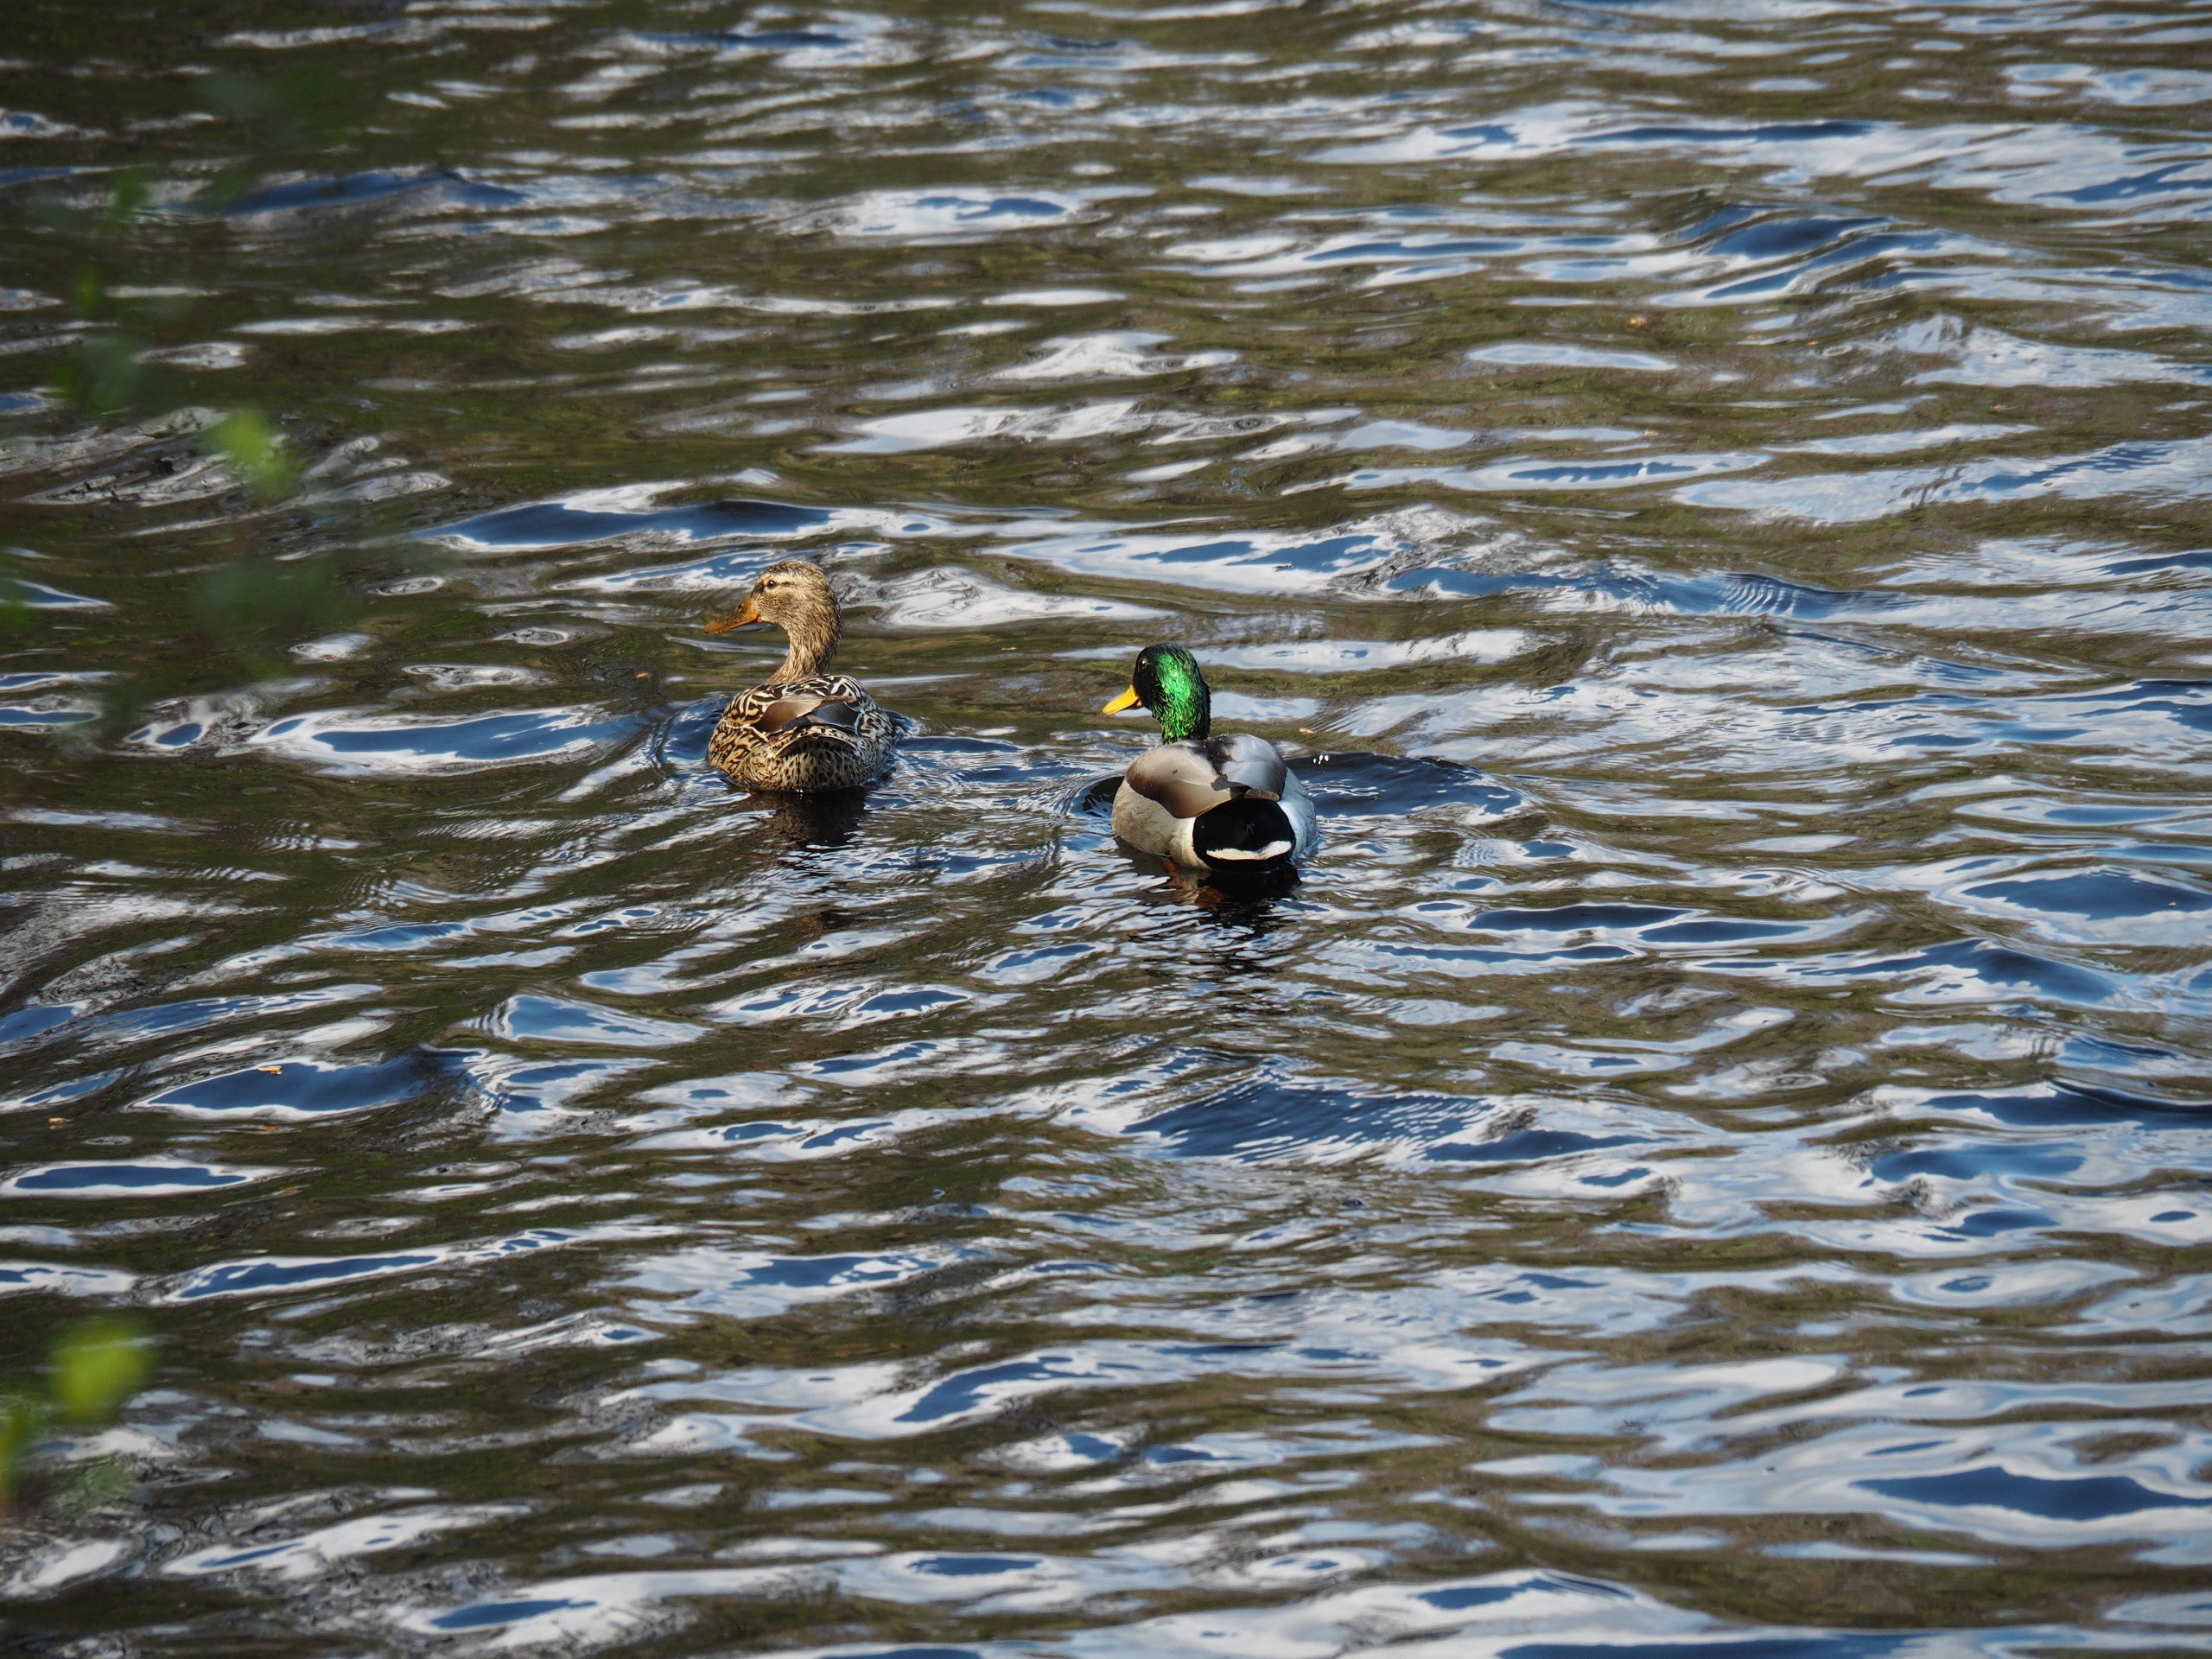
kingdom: Animalia
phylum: Chordata
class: Aves
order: Anseriformes
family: Anatidae
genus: Anas
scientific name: Anas platyrhynchos
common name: Gråand
